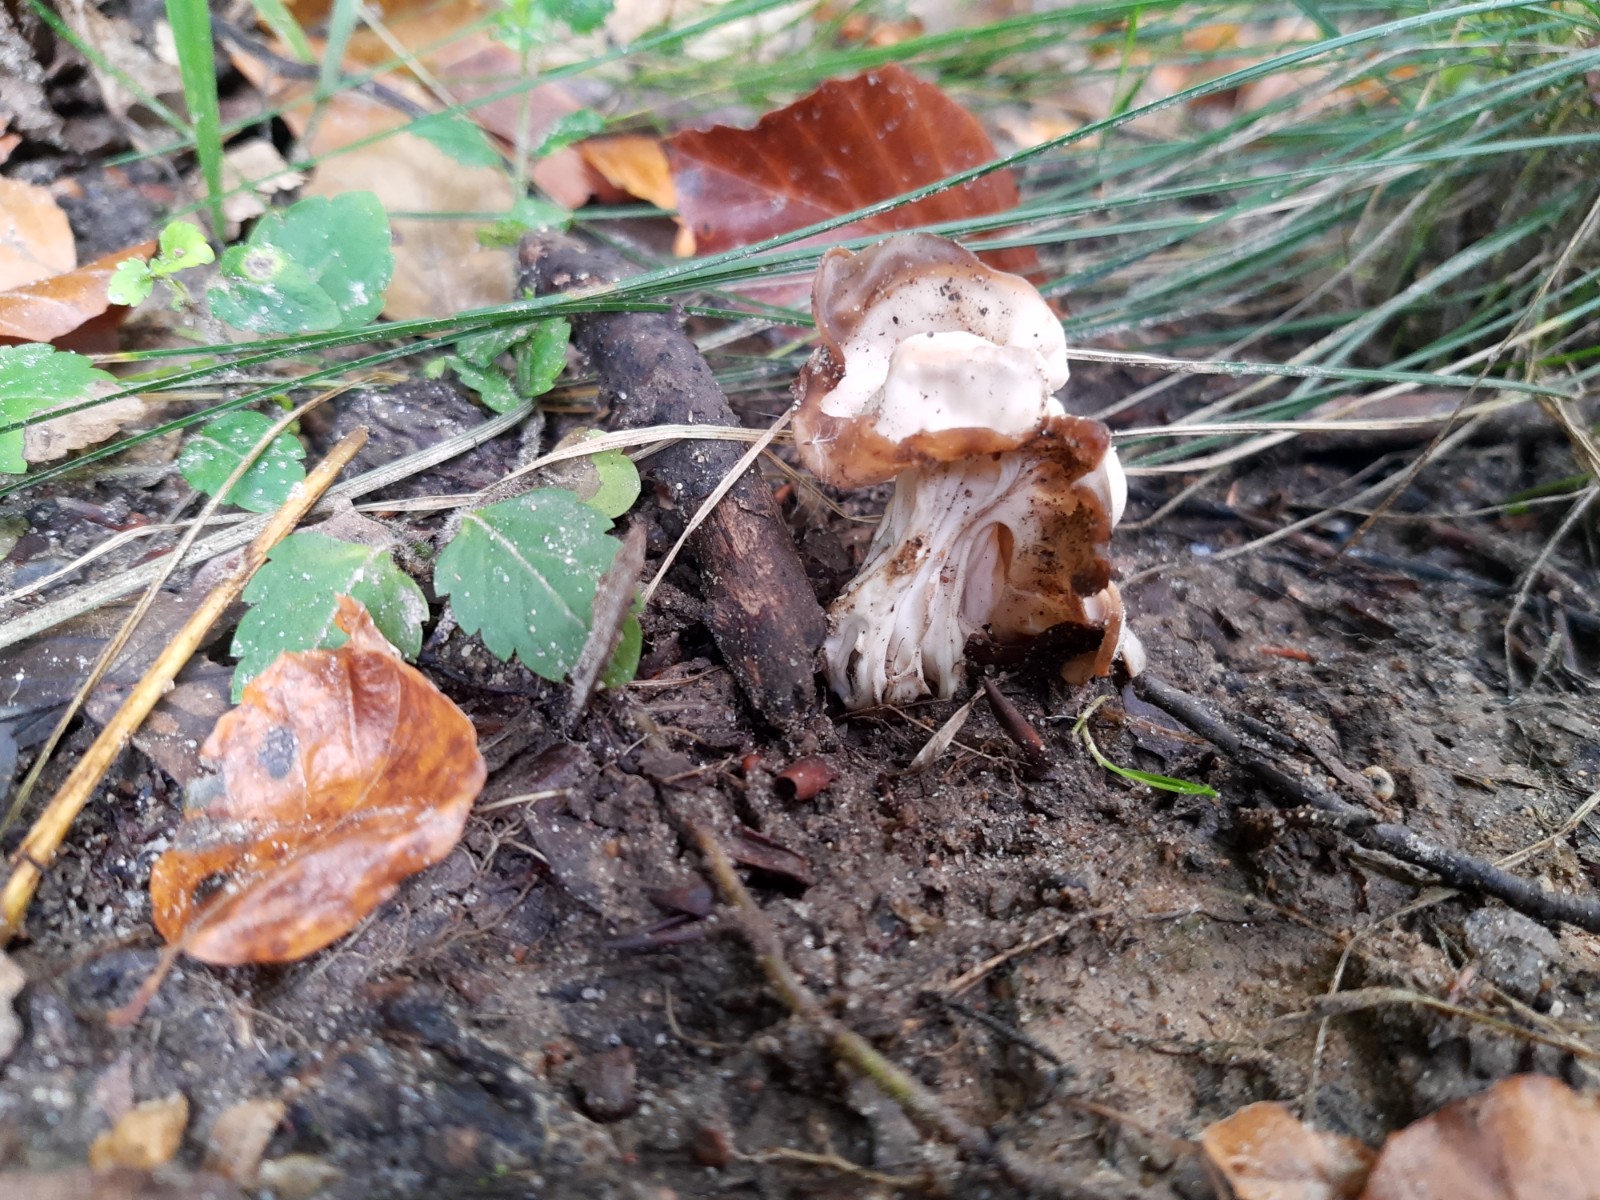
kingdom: Fungi
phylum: Ascomycota
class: Pezizomycetes
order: Pezizales
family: Helvellaceae
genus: Helvella
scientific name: Helvella crispa
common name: kruset foldhat
